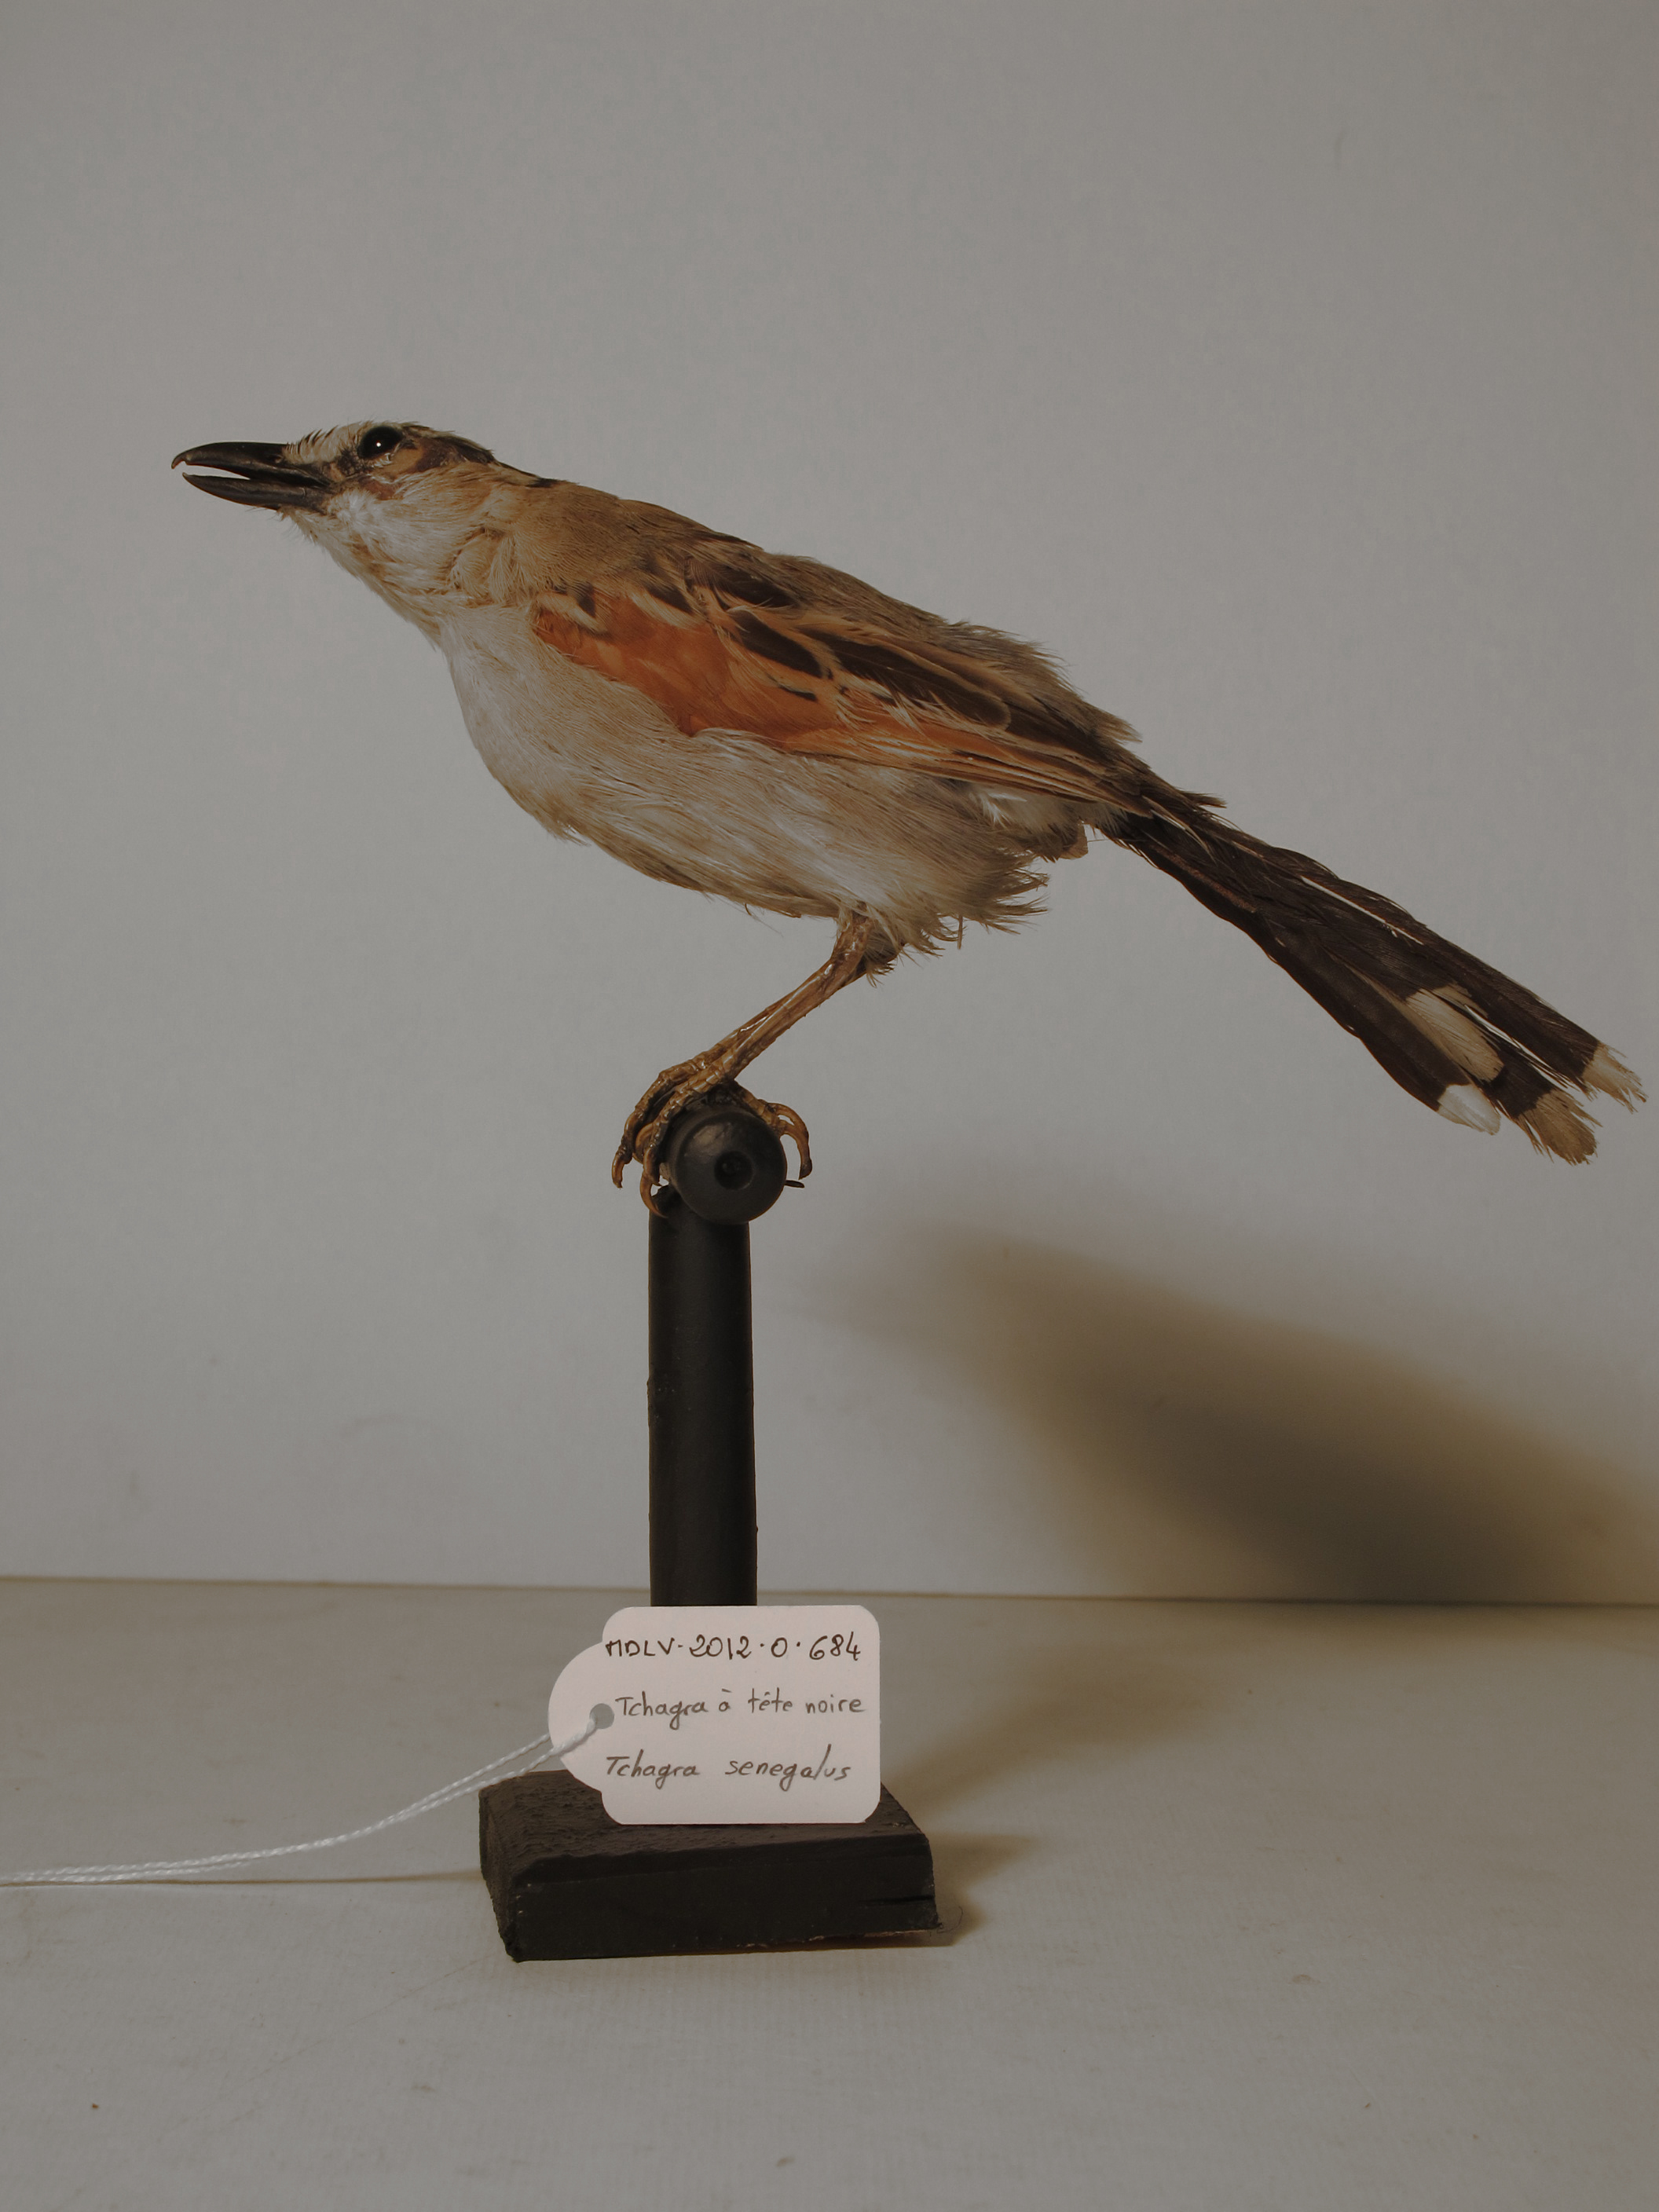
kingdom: Animalia
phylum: Chordata
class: Aves
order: Passeriformes
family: Malaconotidae
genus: Tchagra
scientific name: Tchagra senegalus
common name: Black-crowned Tchagra
